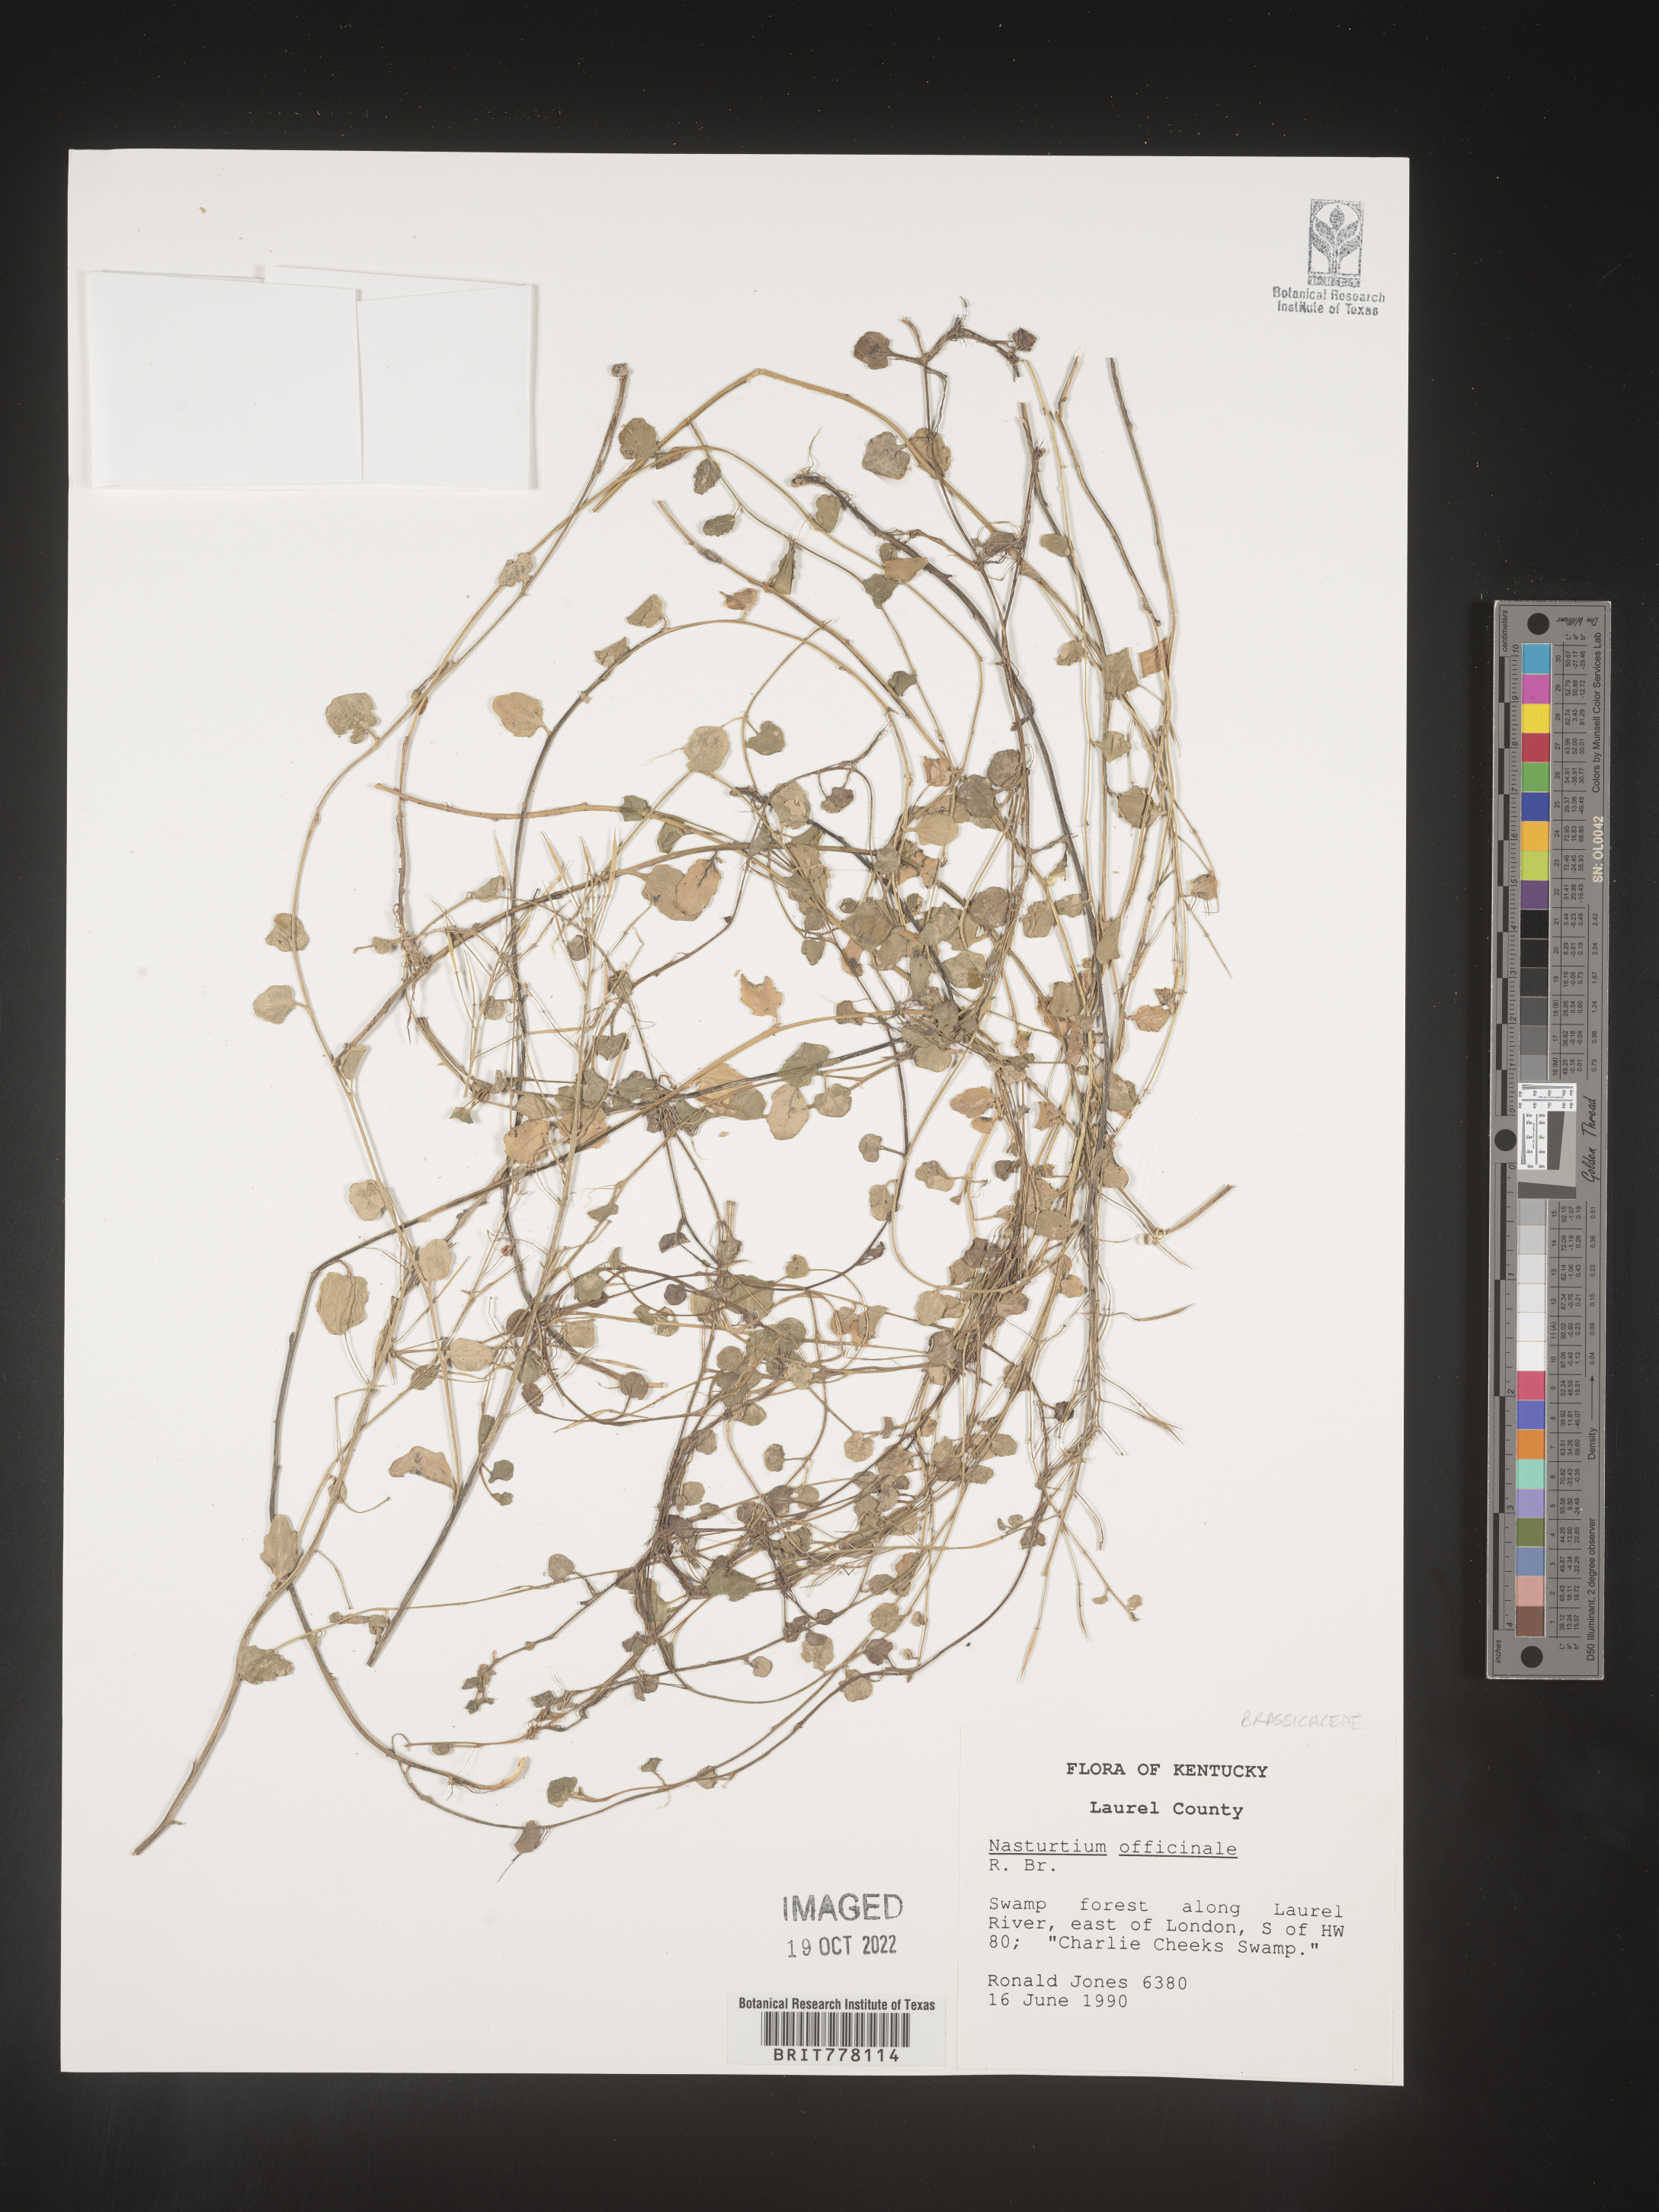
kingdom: Plantae
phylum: Tracheophyta
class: Magnoliopsida
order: Brassicales
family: Brassicaceae
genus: Nasturtium
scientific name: Nasturtium
